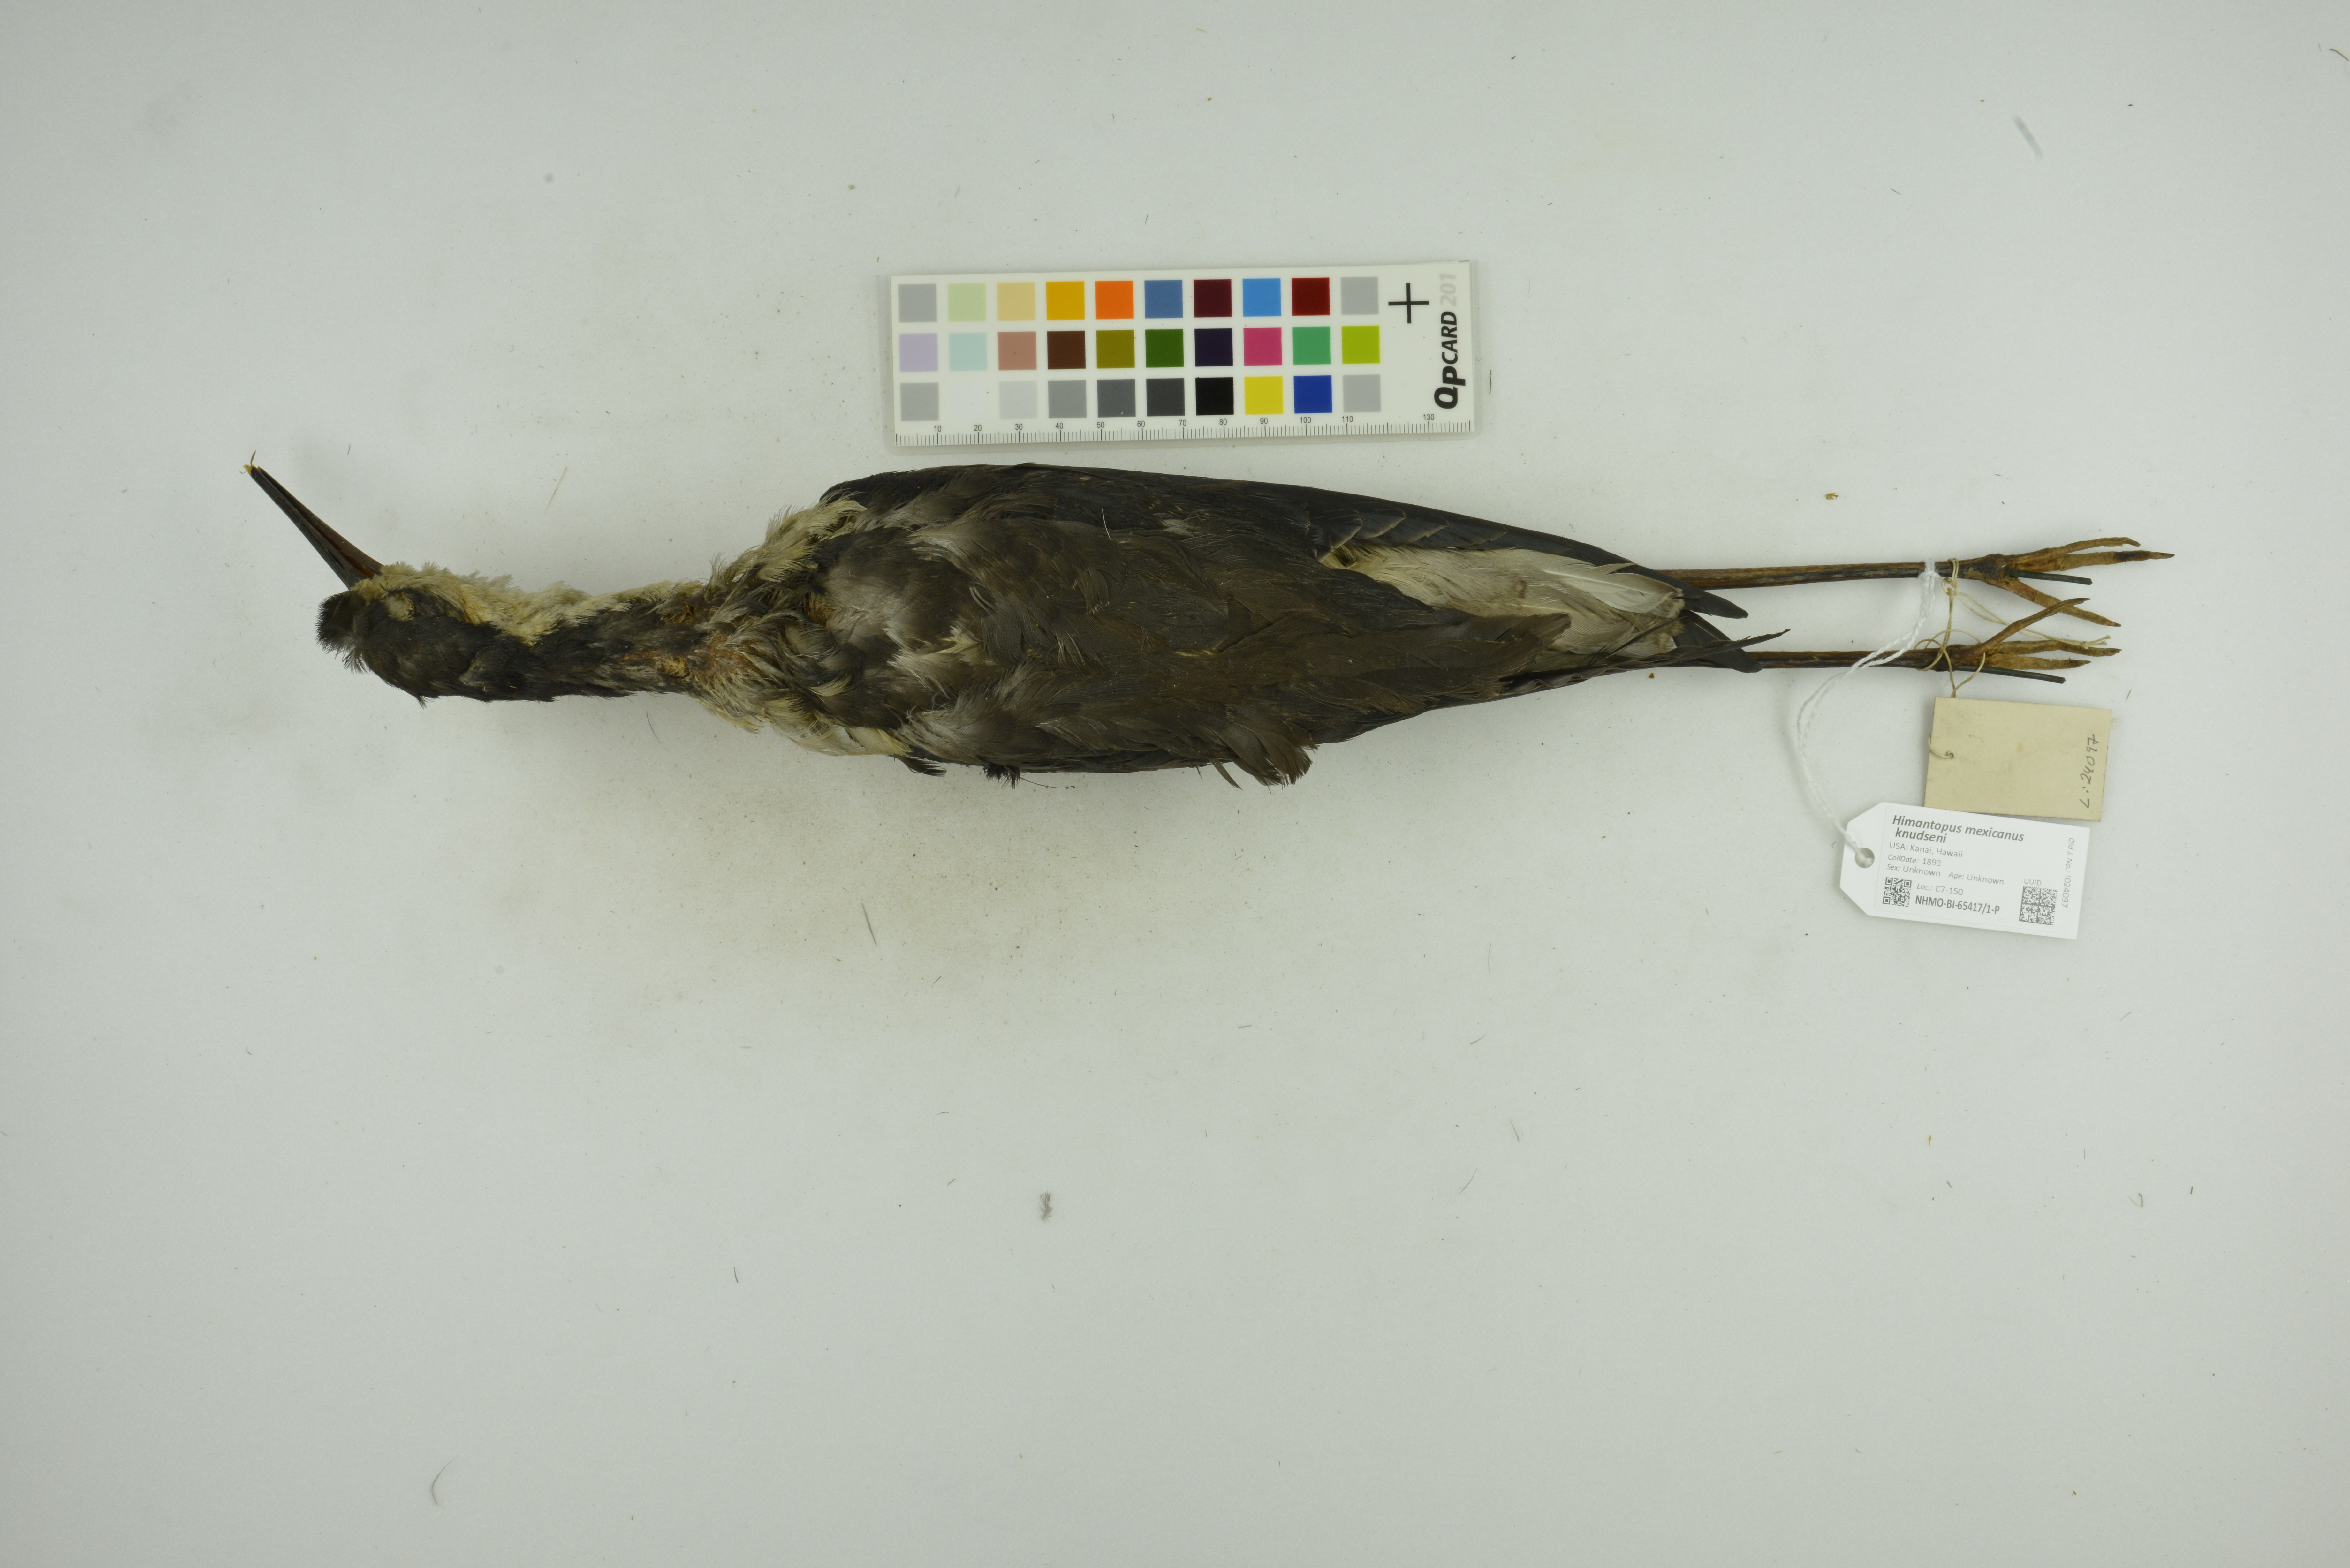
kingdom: Animalia
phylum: Chordata
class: Aves
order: Charadriiformes
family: Recurvirostridae
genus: Himantopus
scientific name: Himantopus mexicanus
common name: Black-necked stilt
